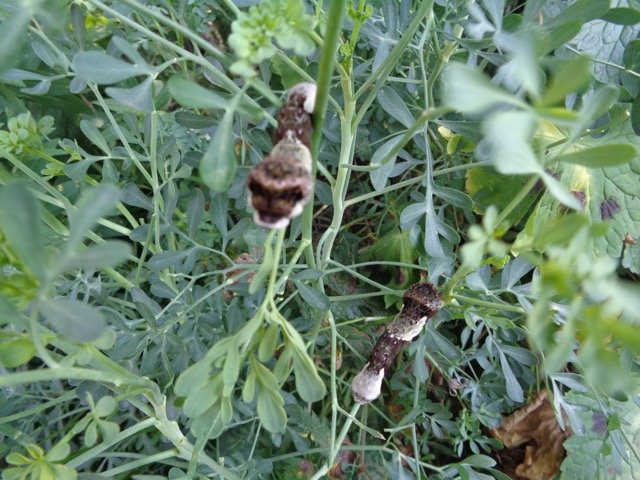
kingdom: Animalia
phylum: Arthropoda
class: Insecta
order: Lepidoptera
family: Papilionidae
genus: Papilio
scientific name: Papilio cresphontes
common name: Eastern Giant Swallowtail
